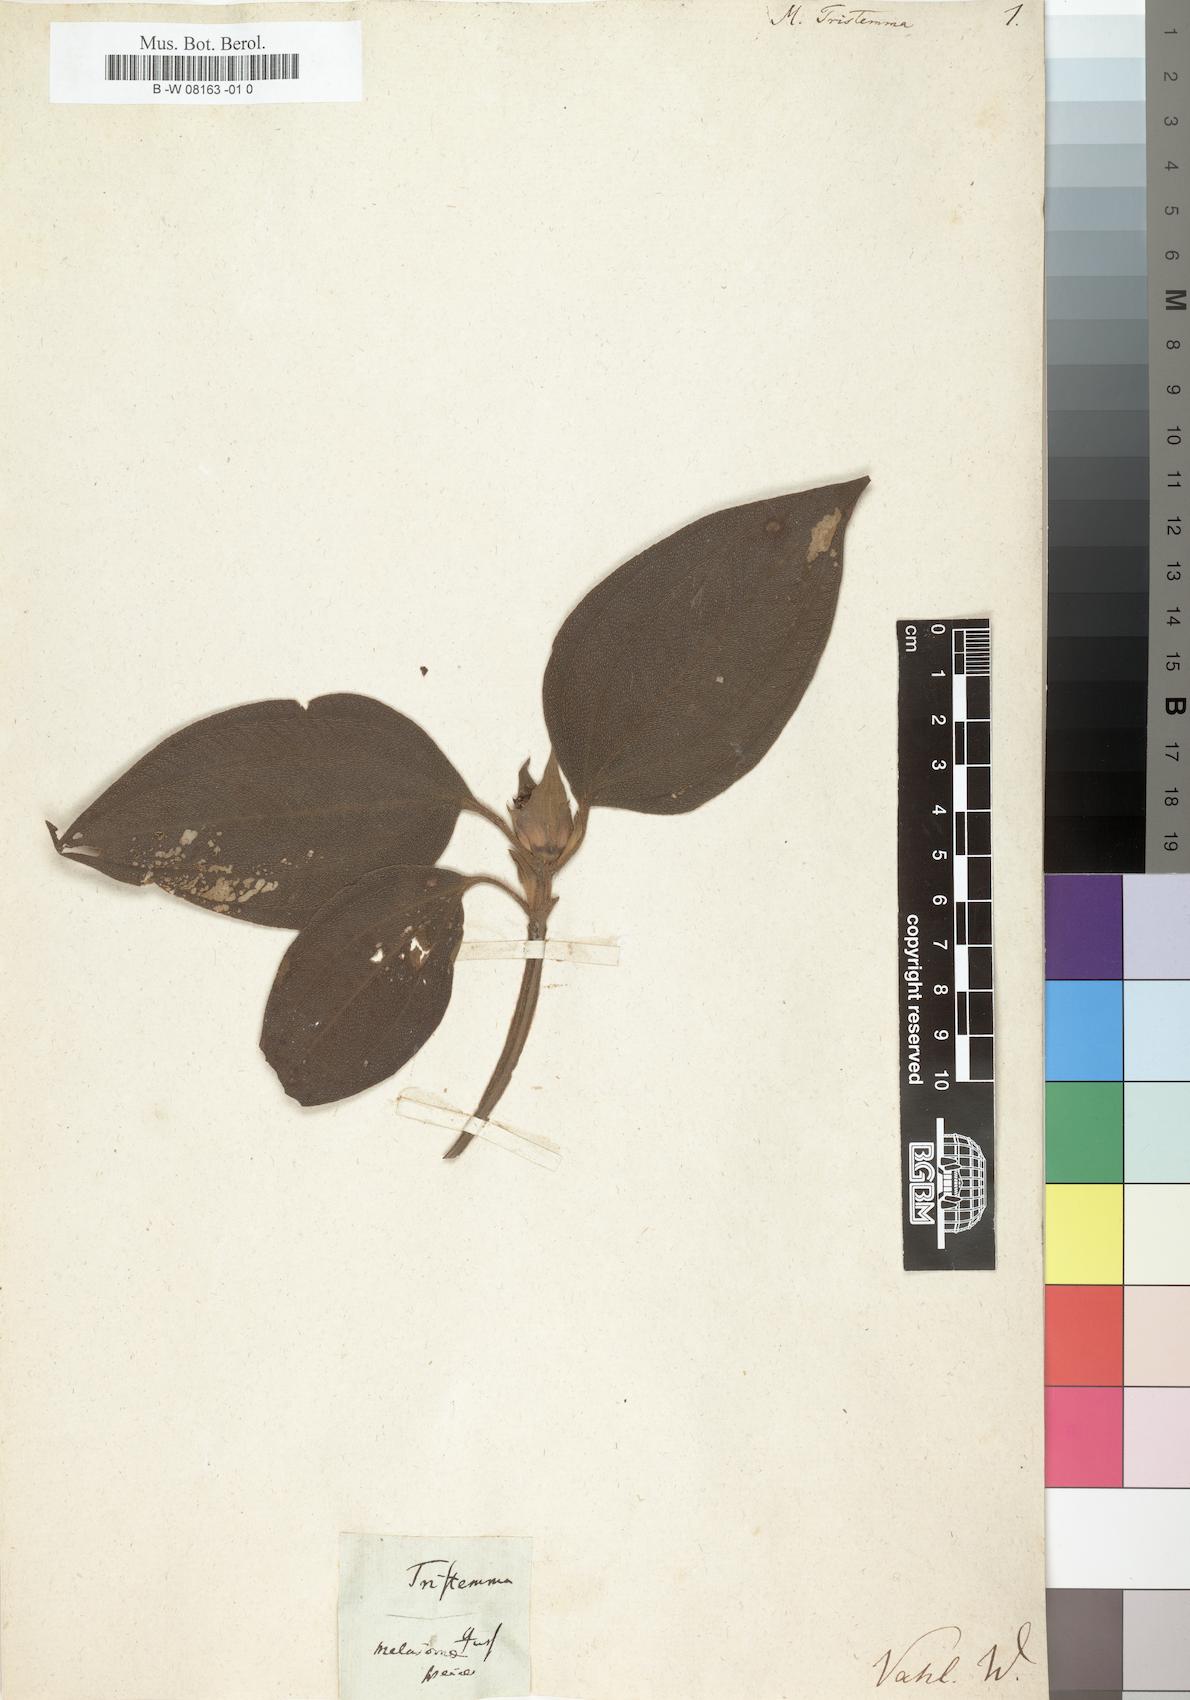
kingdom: Plantae
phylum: Tracheophyta
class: Magnoliopsida
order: Myrtales
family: Melastomataceae
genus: Miconia
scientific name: Miconia
